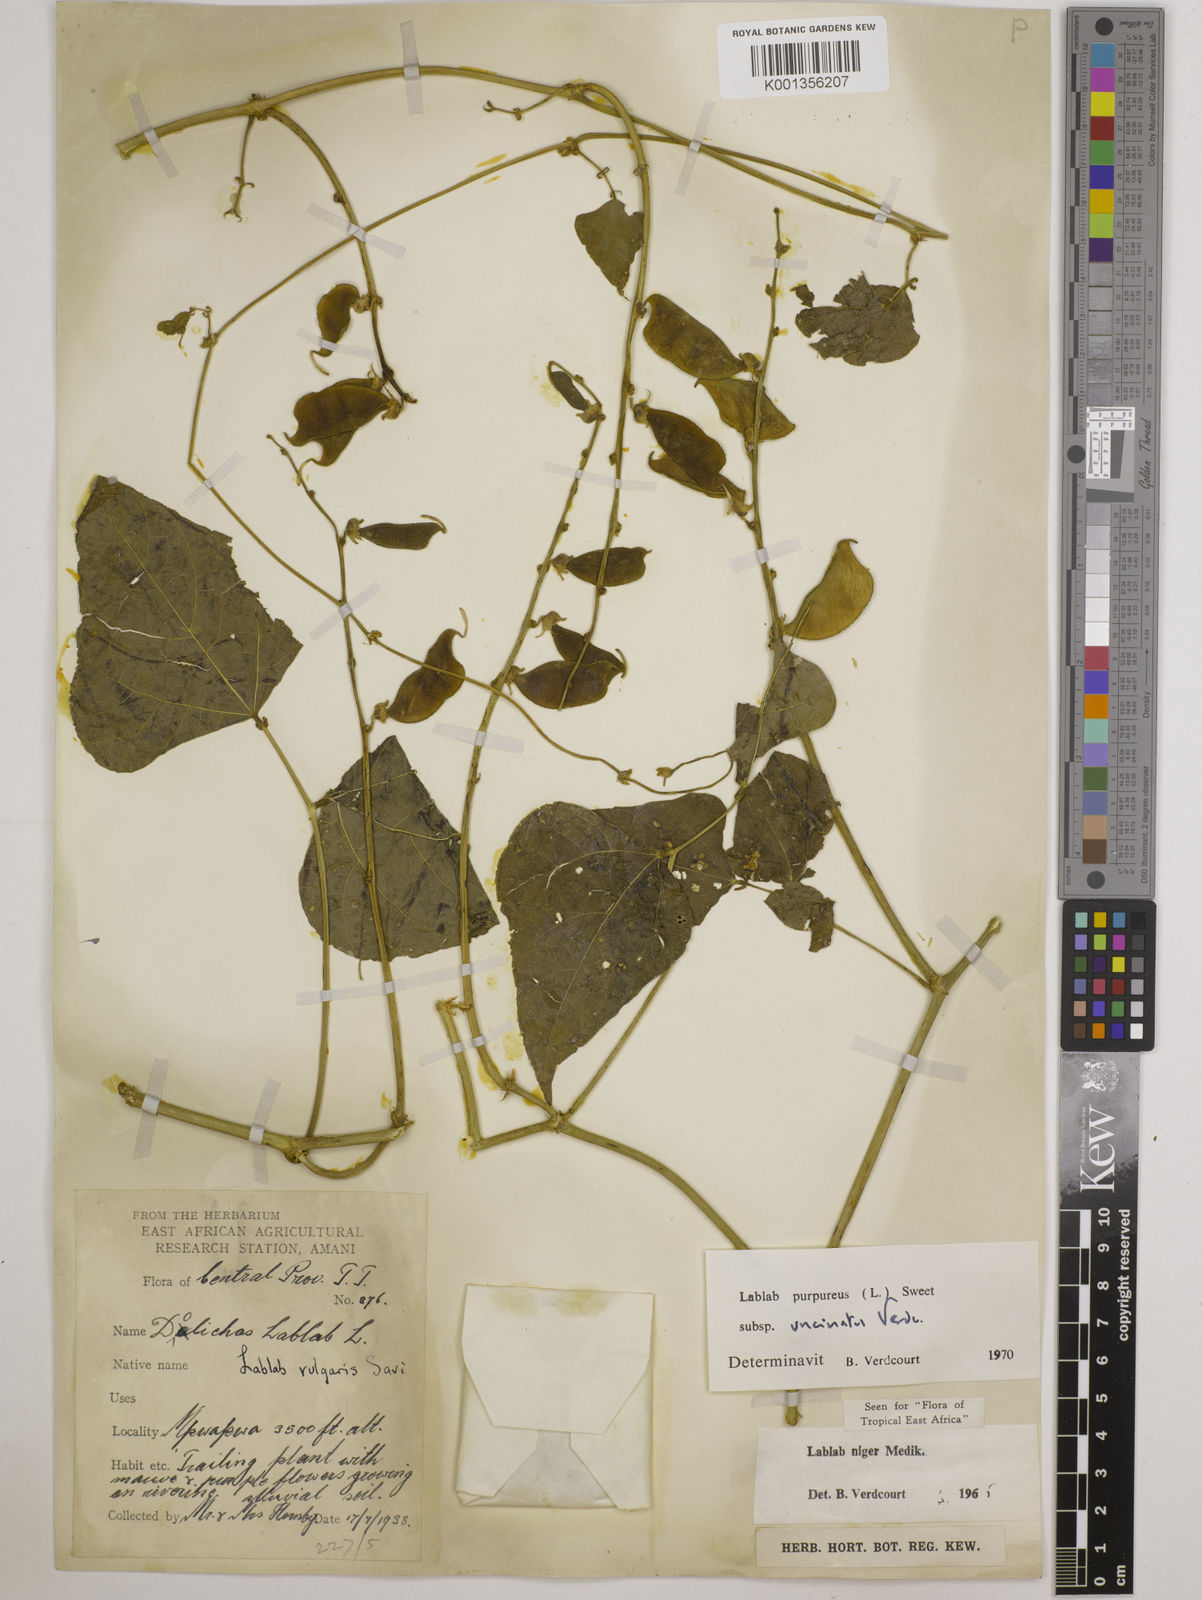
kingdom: Plantae
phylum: Tracheophyta
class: Magnoliopsida
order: Fabales
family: Fabaceae
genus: Lablab
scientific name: Lablab purpureus
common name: Lablab-bean
